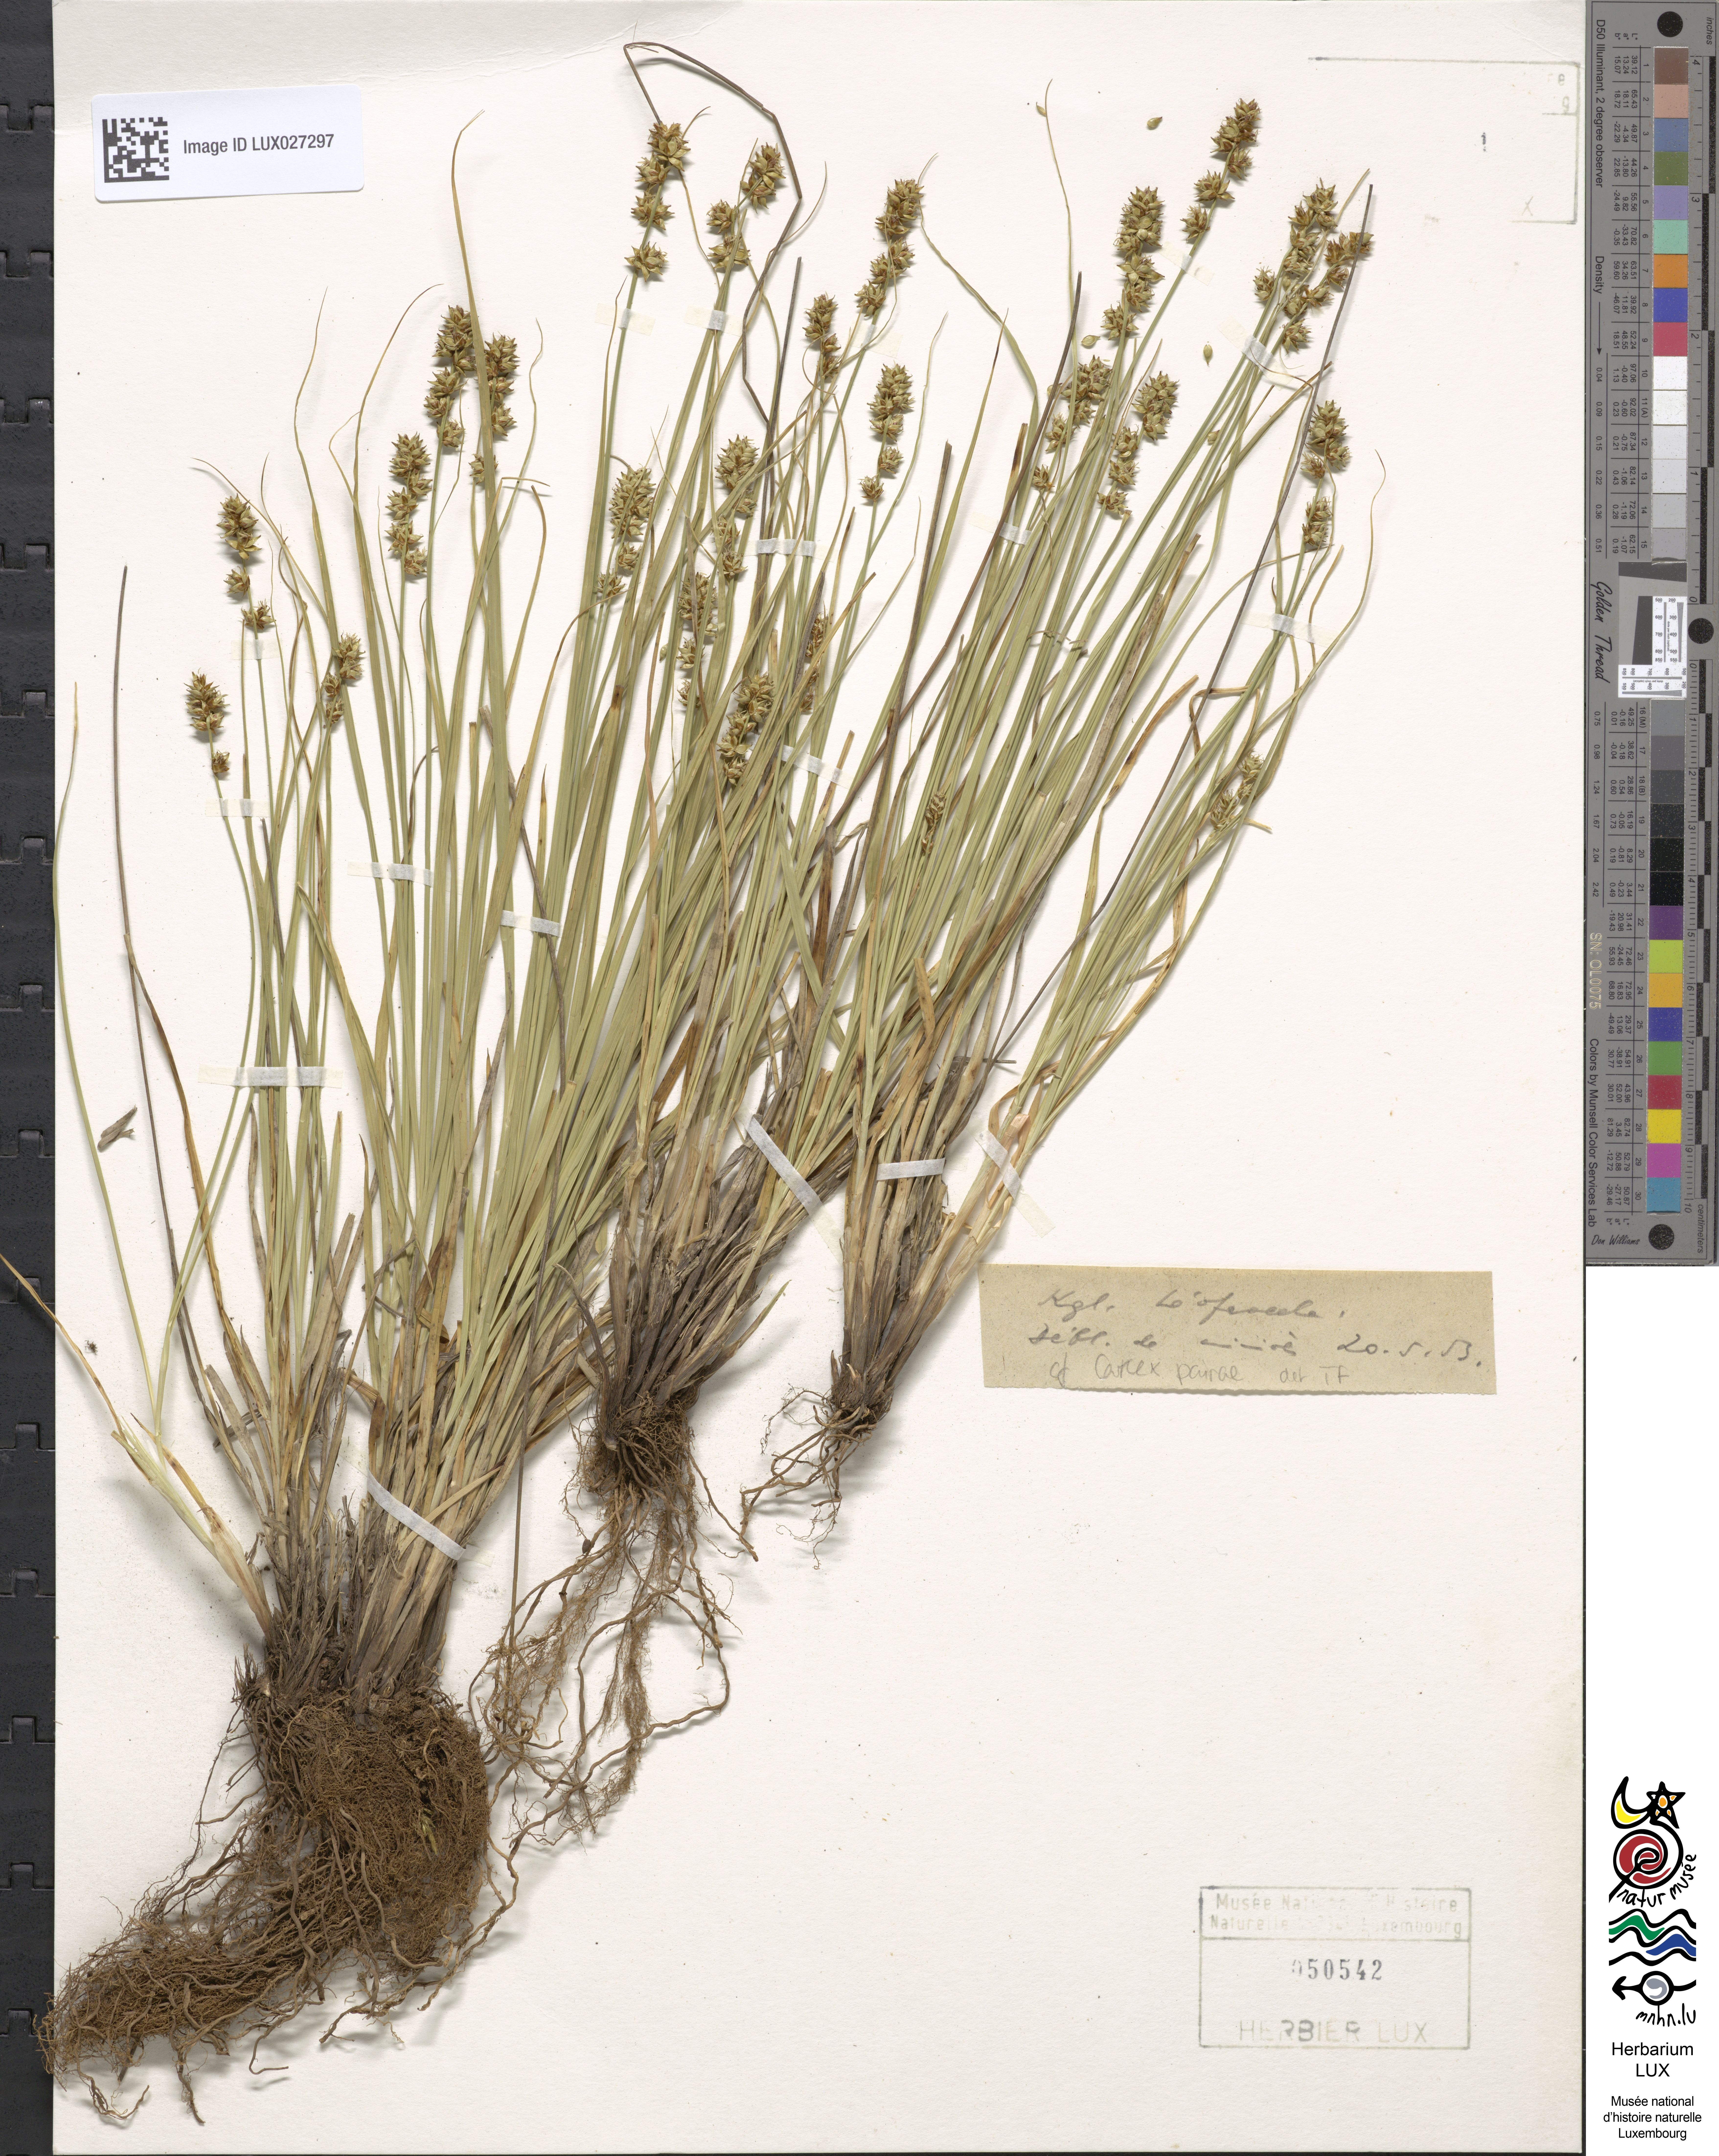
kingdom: Plantae
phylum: Tracheophyta
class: Liliopsida
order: Poales
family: Cyperaceae
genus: Carex
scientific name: Carex pairae
